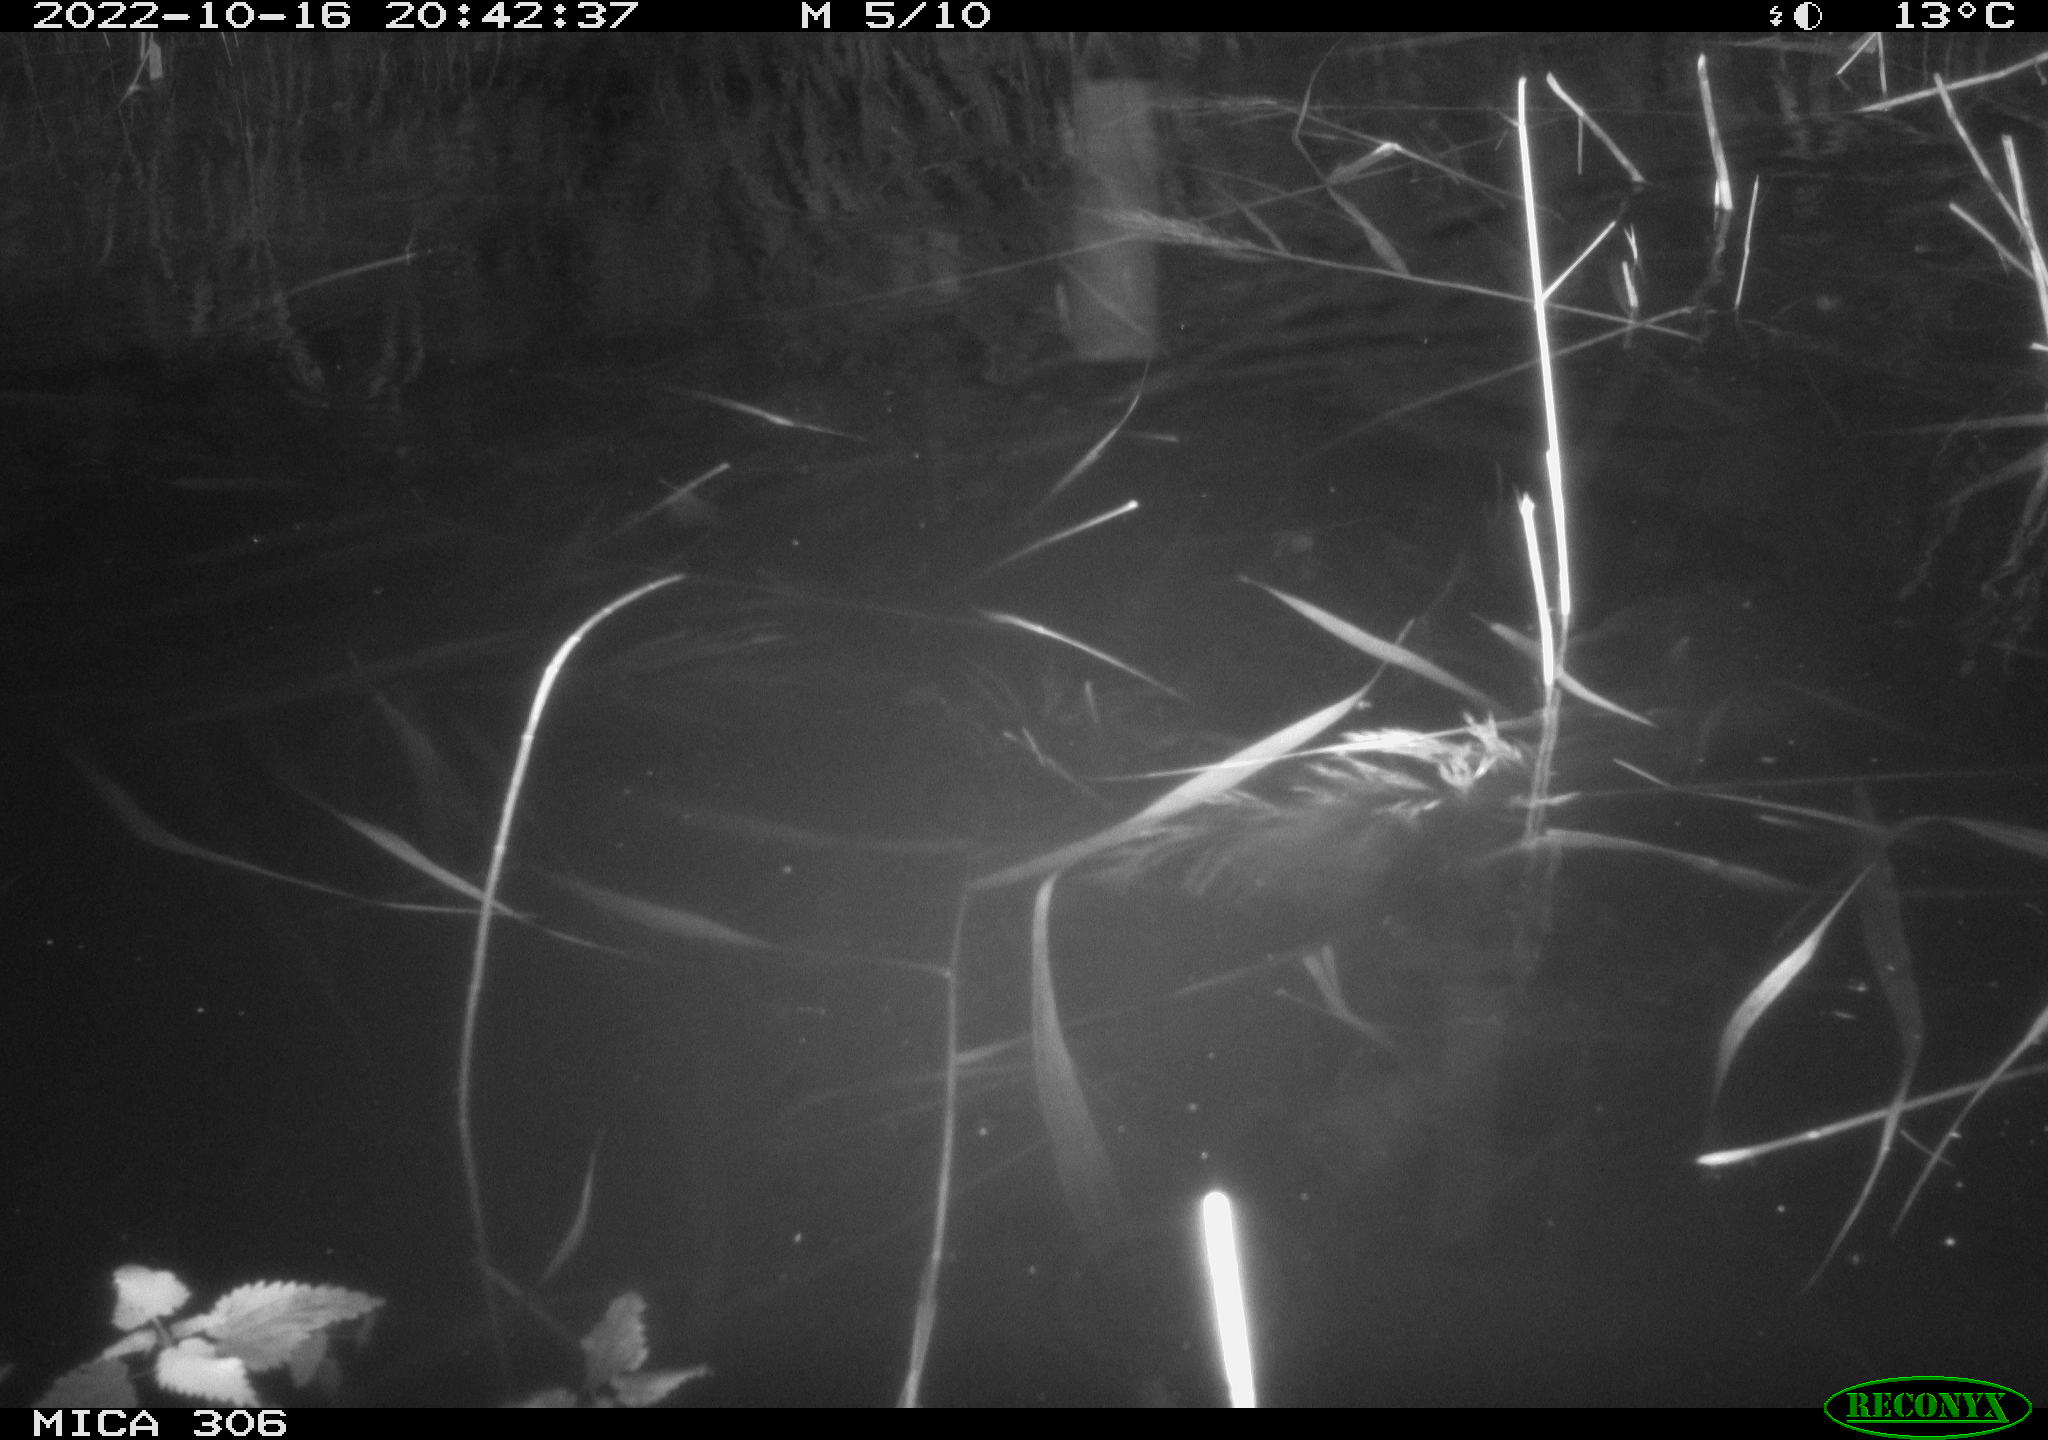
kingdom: Animalia
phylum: Chordata
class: Mammalia
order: Rodentia
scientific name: Rodentia
